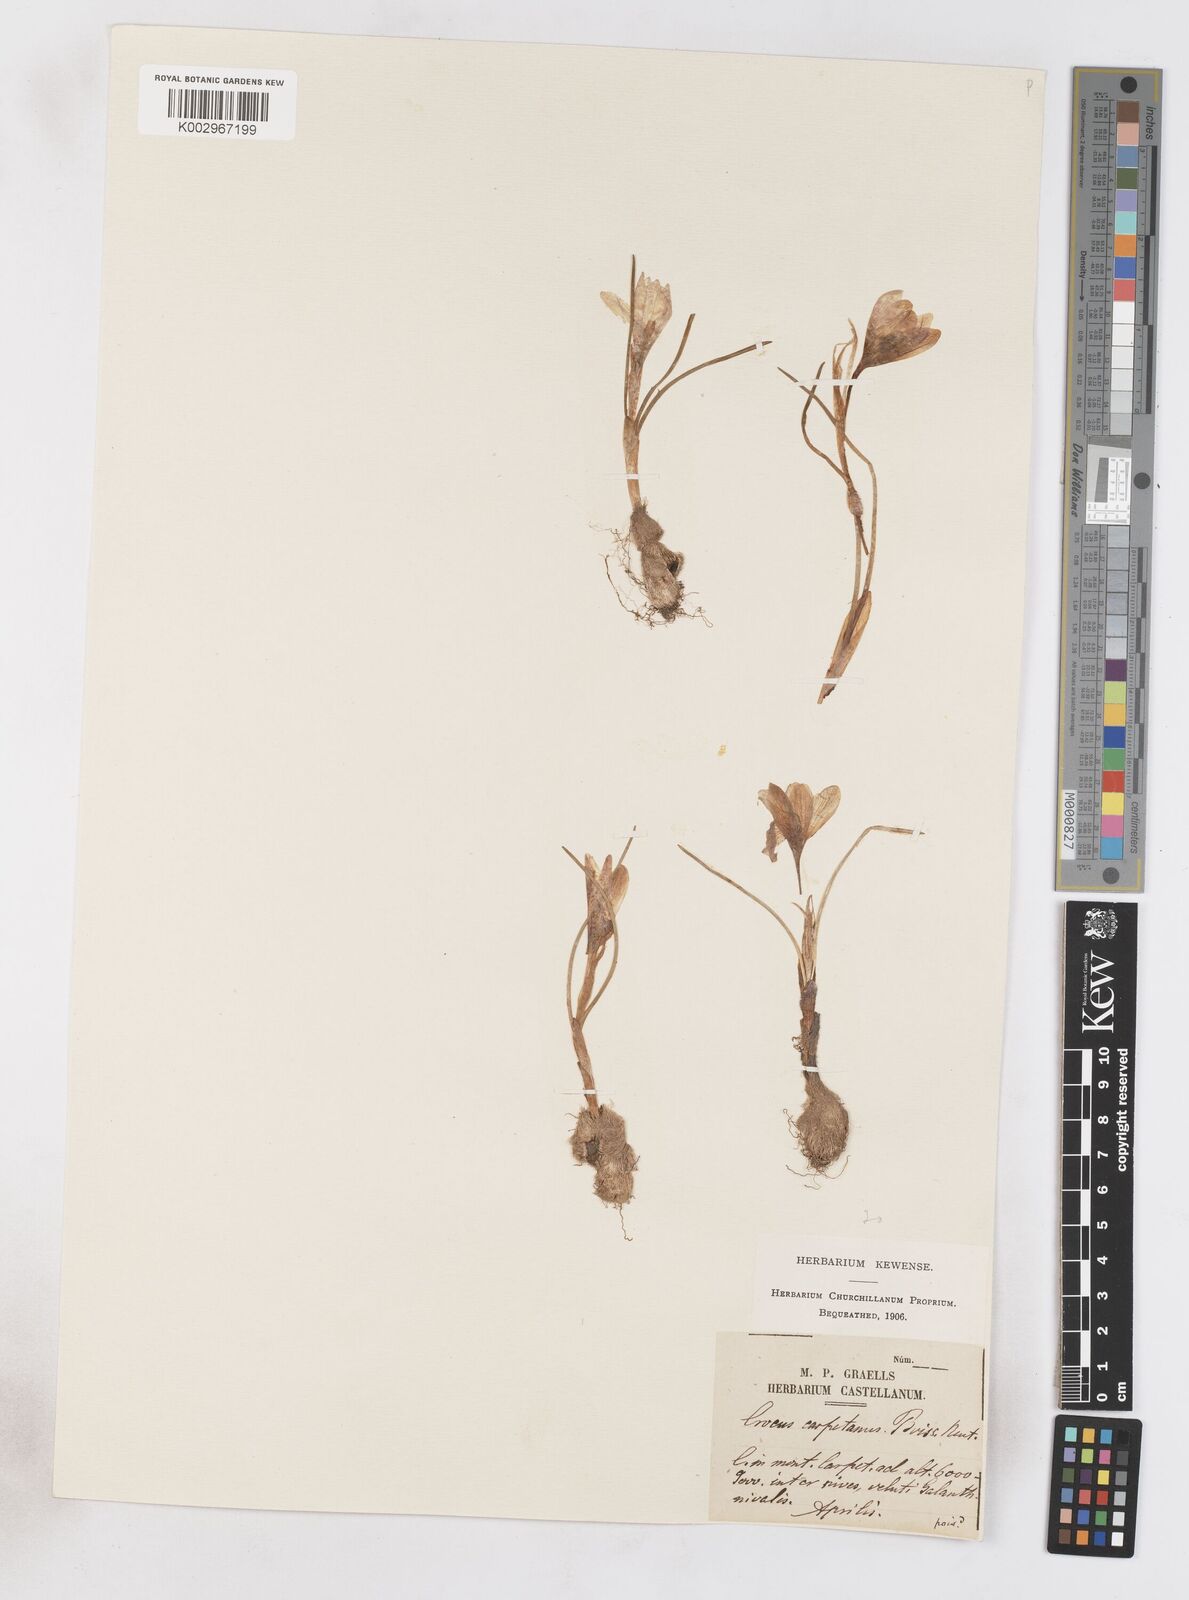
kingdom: Plantae
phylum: Tracheophyta
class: Liliopsida
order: Asparagales
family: Iridaceae
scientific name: Iridaceae
